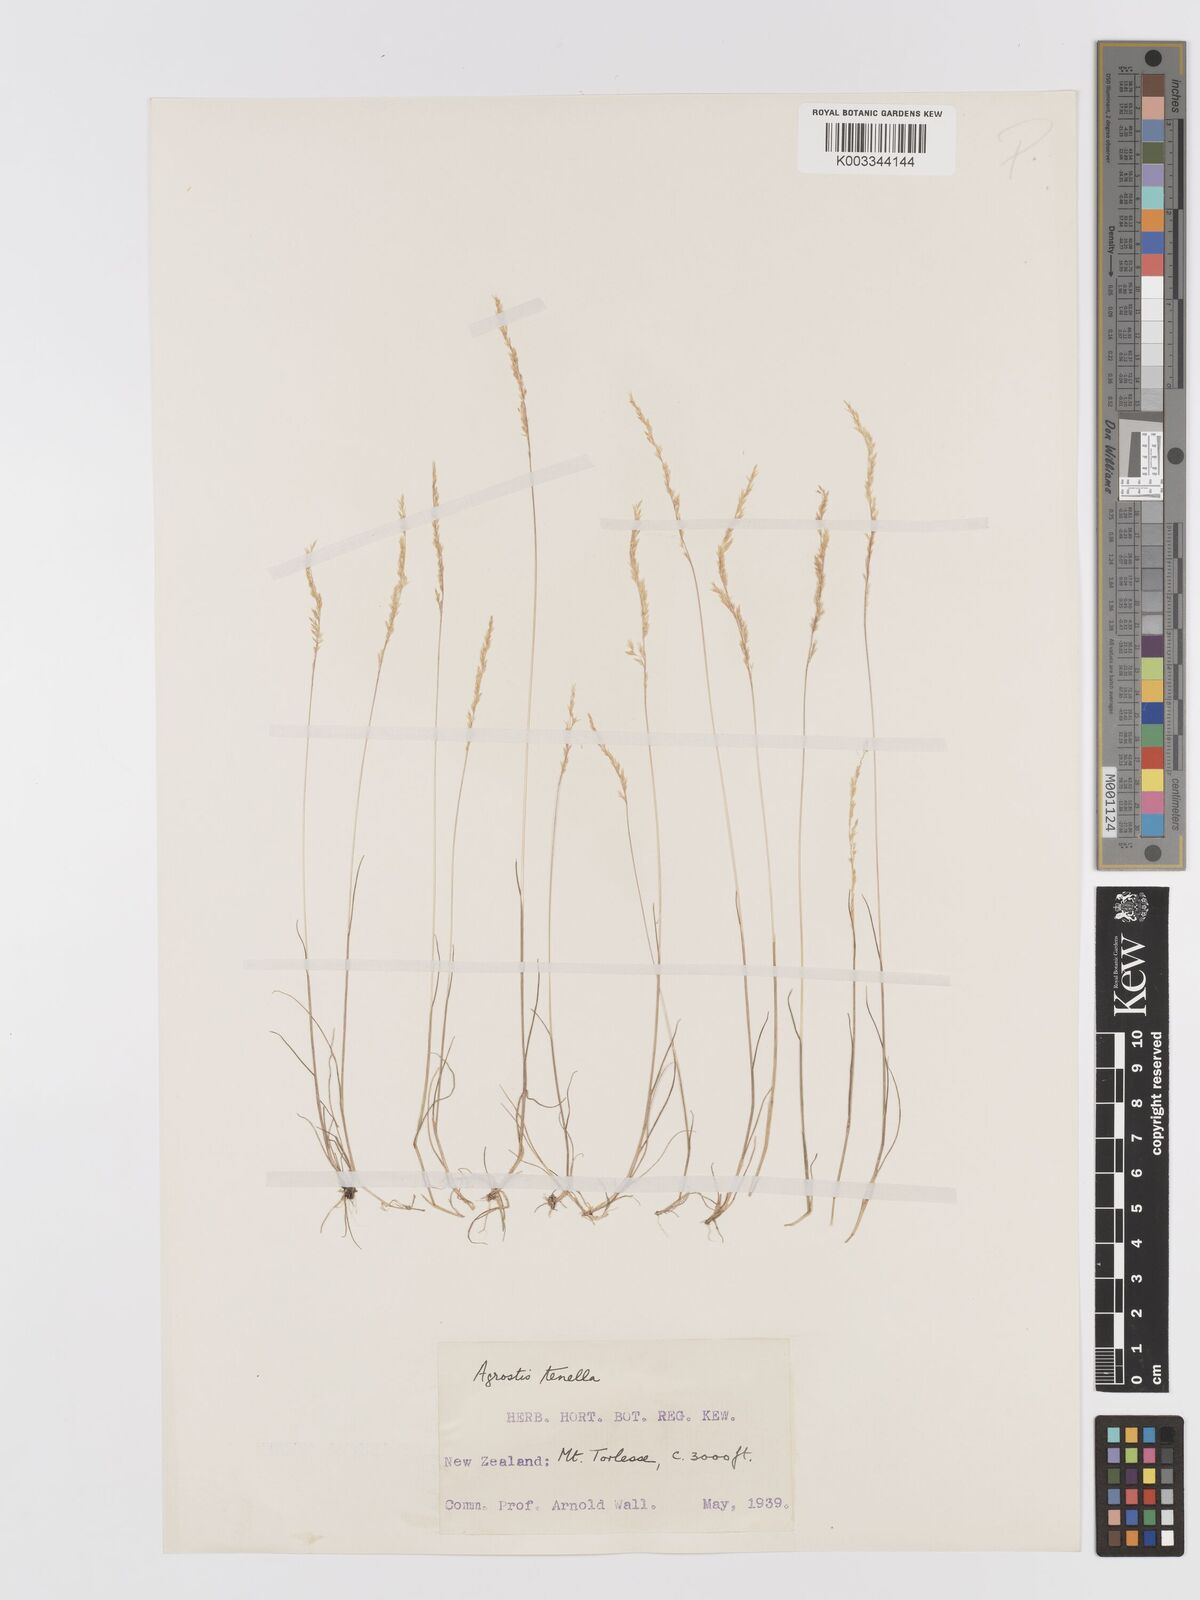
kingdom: Plantae
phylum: Tracheophyta
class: Liliopsida
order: Poales
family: Poaceae
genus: Agrostis
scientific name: Agrostis imbecilla
